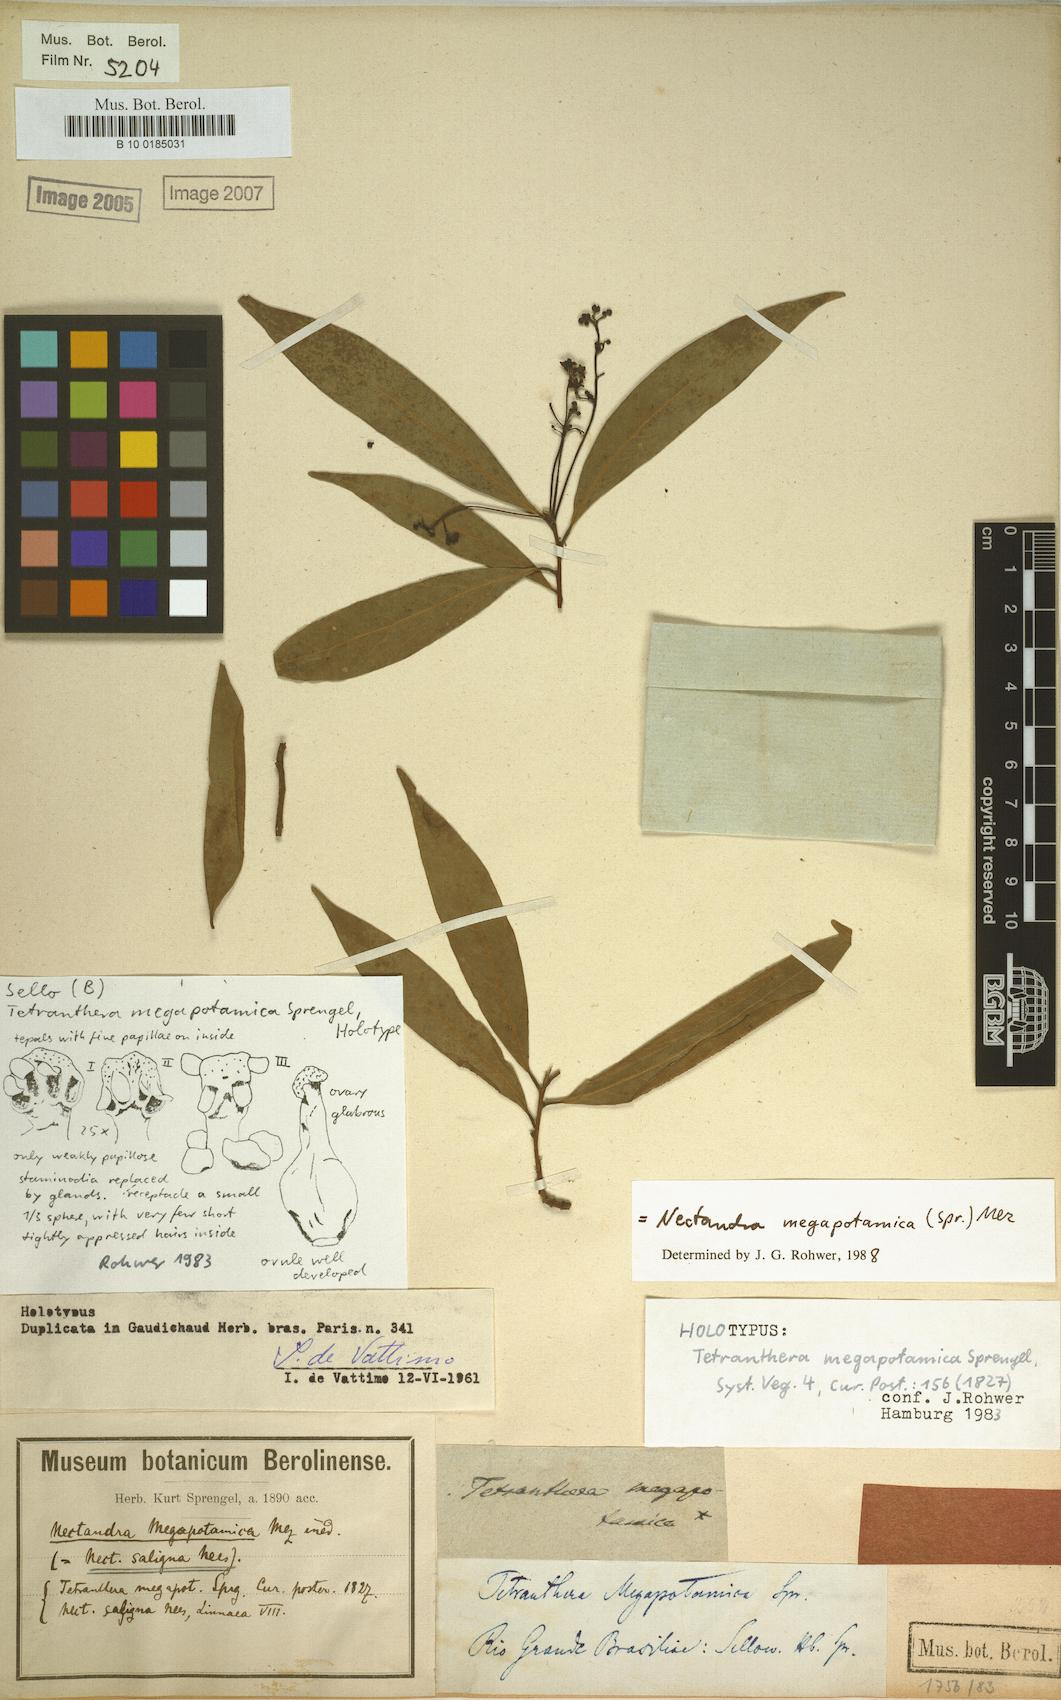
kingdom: Plantae
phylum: Tracheophyta
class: Magnoliopsida
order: Laurales
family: Lauraceae
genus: Nectandra
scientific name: Nectandra megapotamica
